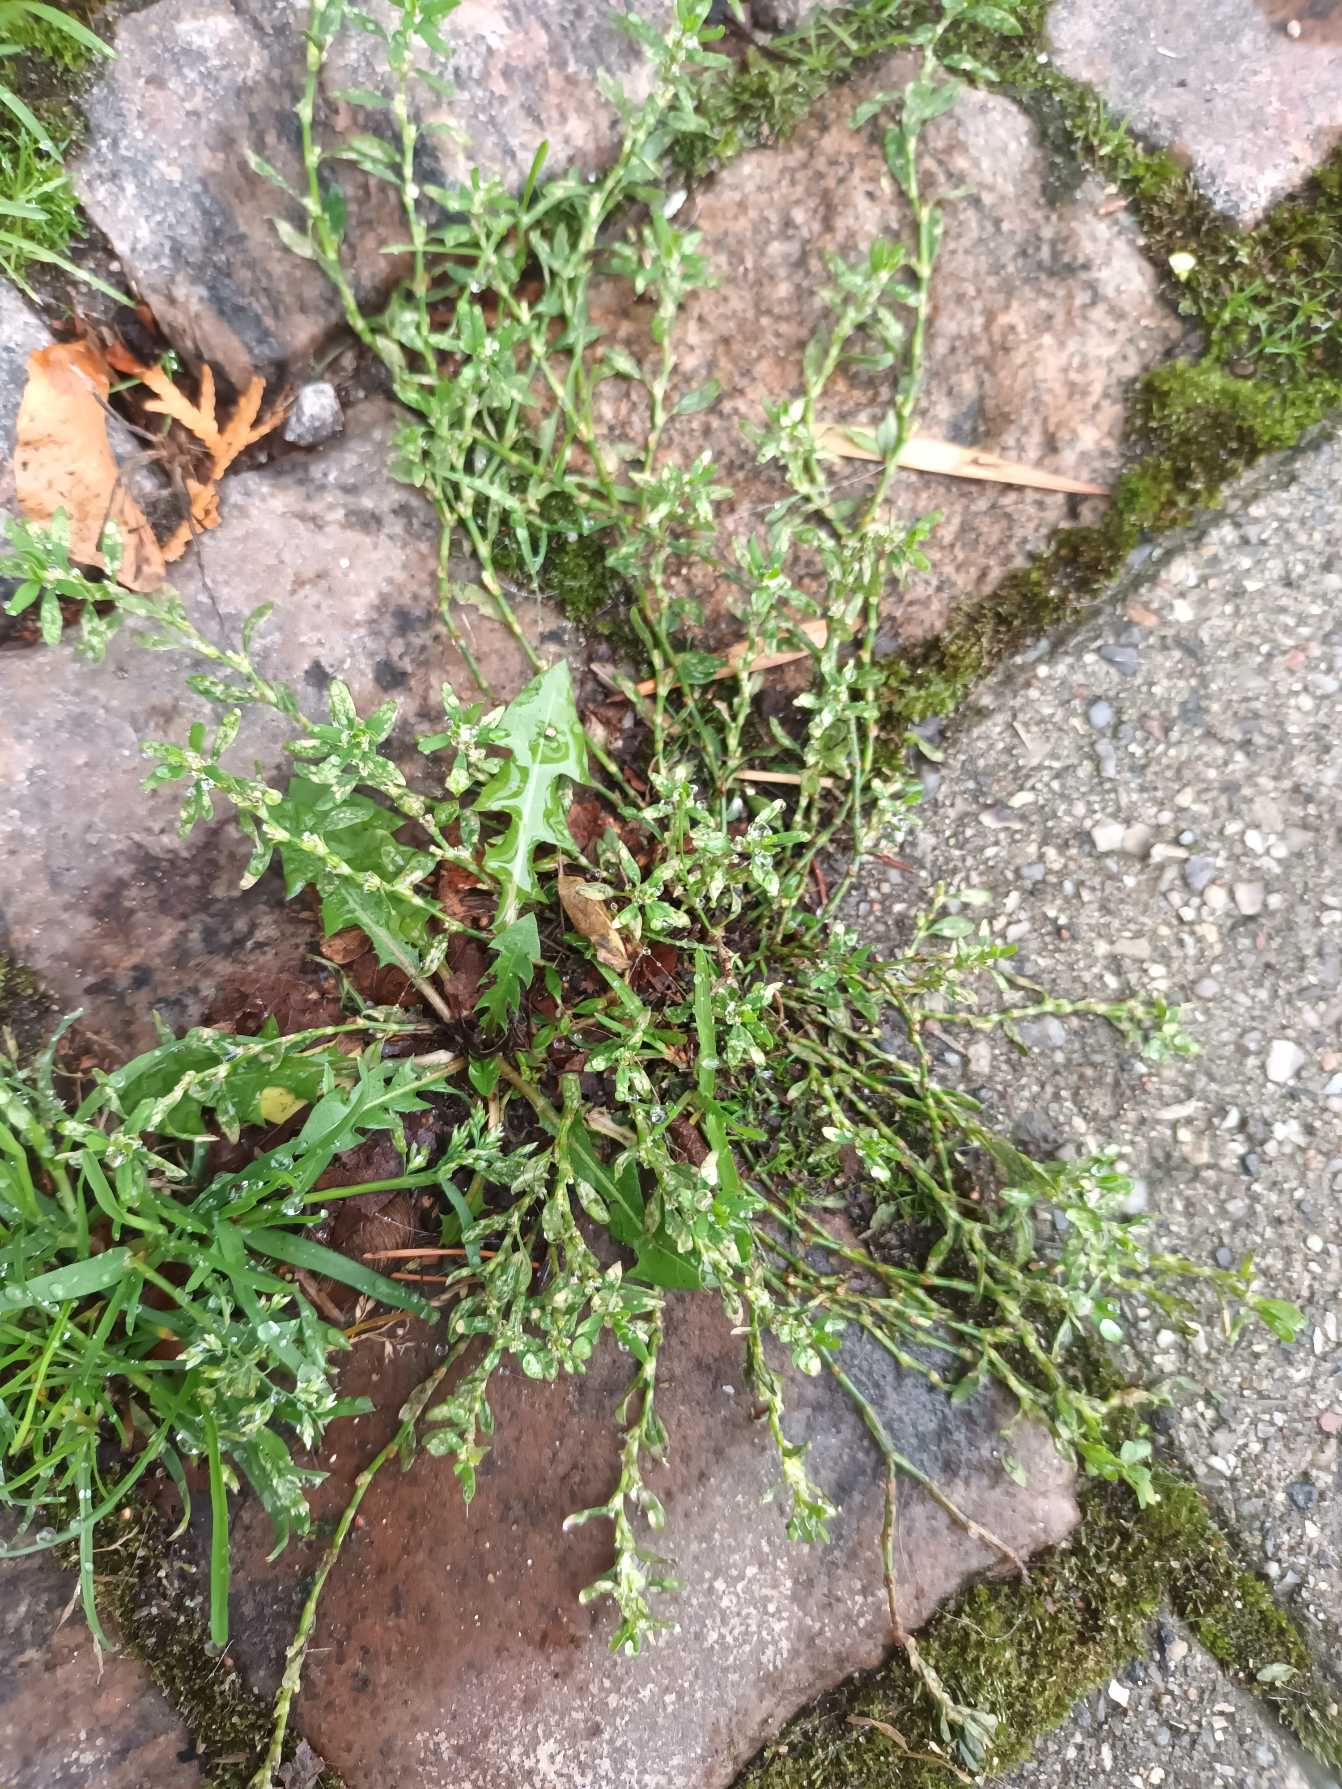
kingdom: Plantae
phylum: Tracheophyta
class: Magnoliopsida
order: Caryophyllales
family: Polygonaceae
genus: Polygonum
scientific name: Polygonum arenastrum
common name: Liggende vej-pileurt
